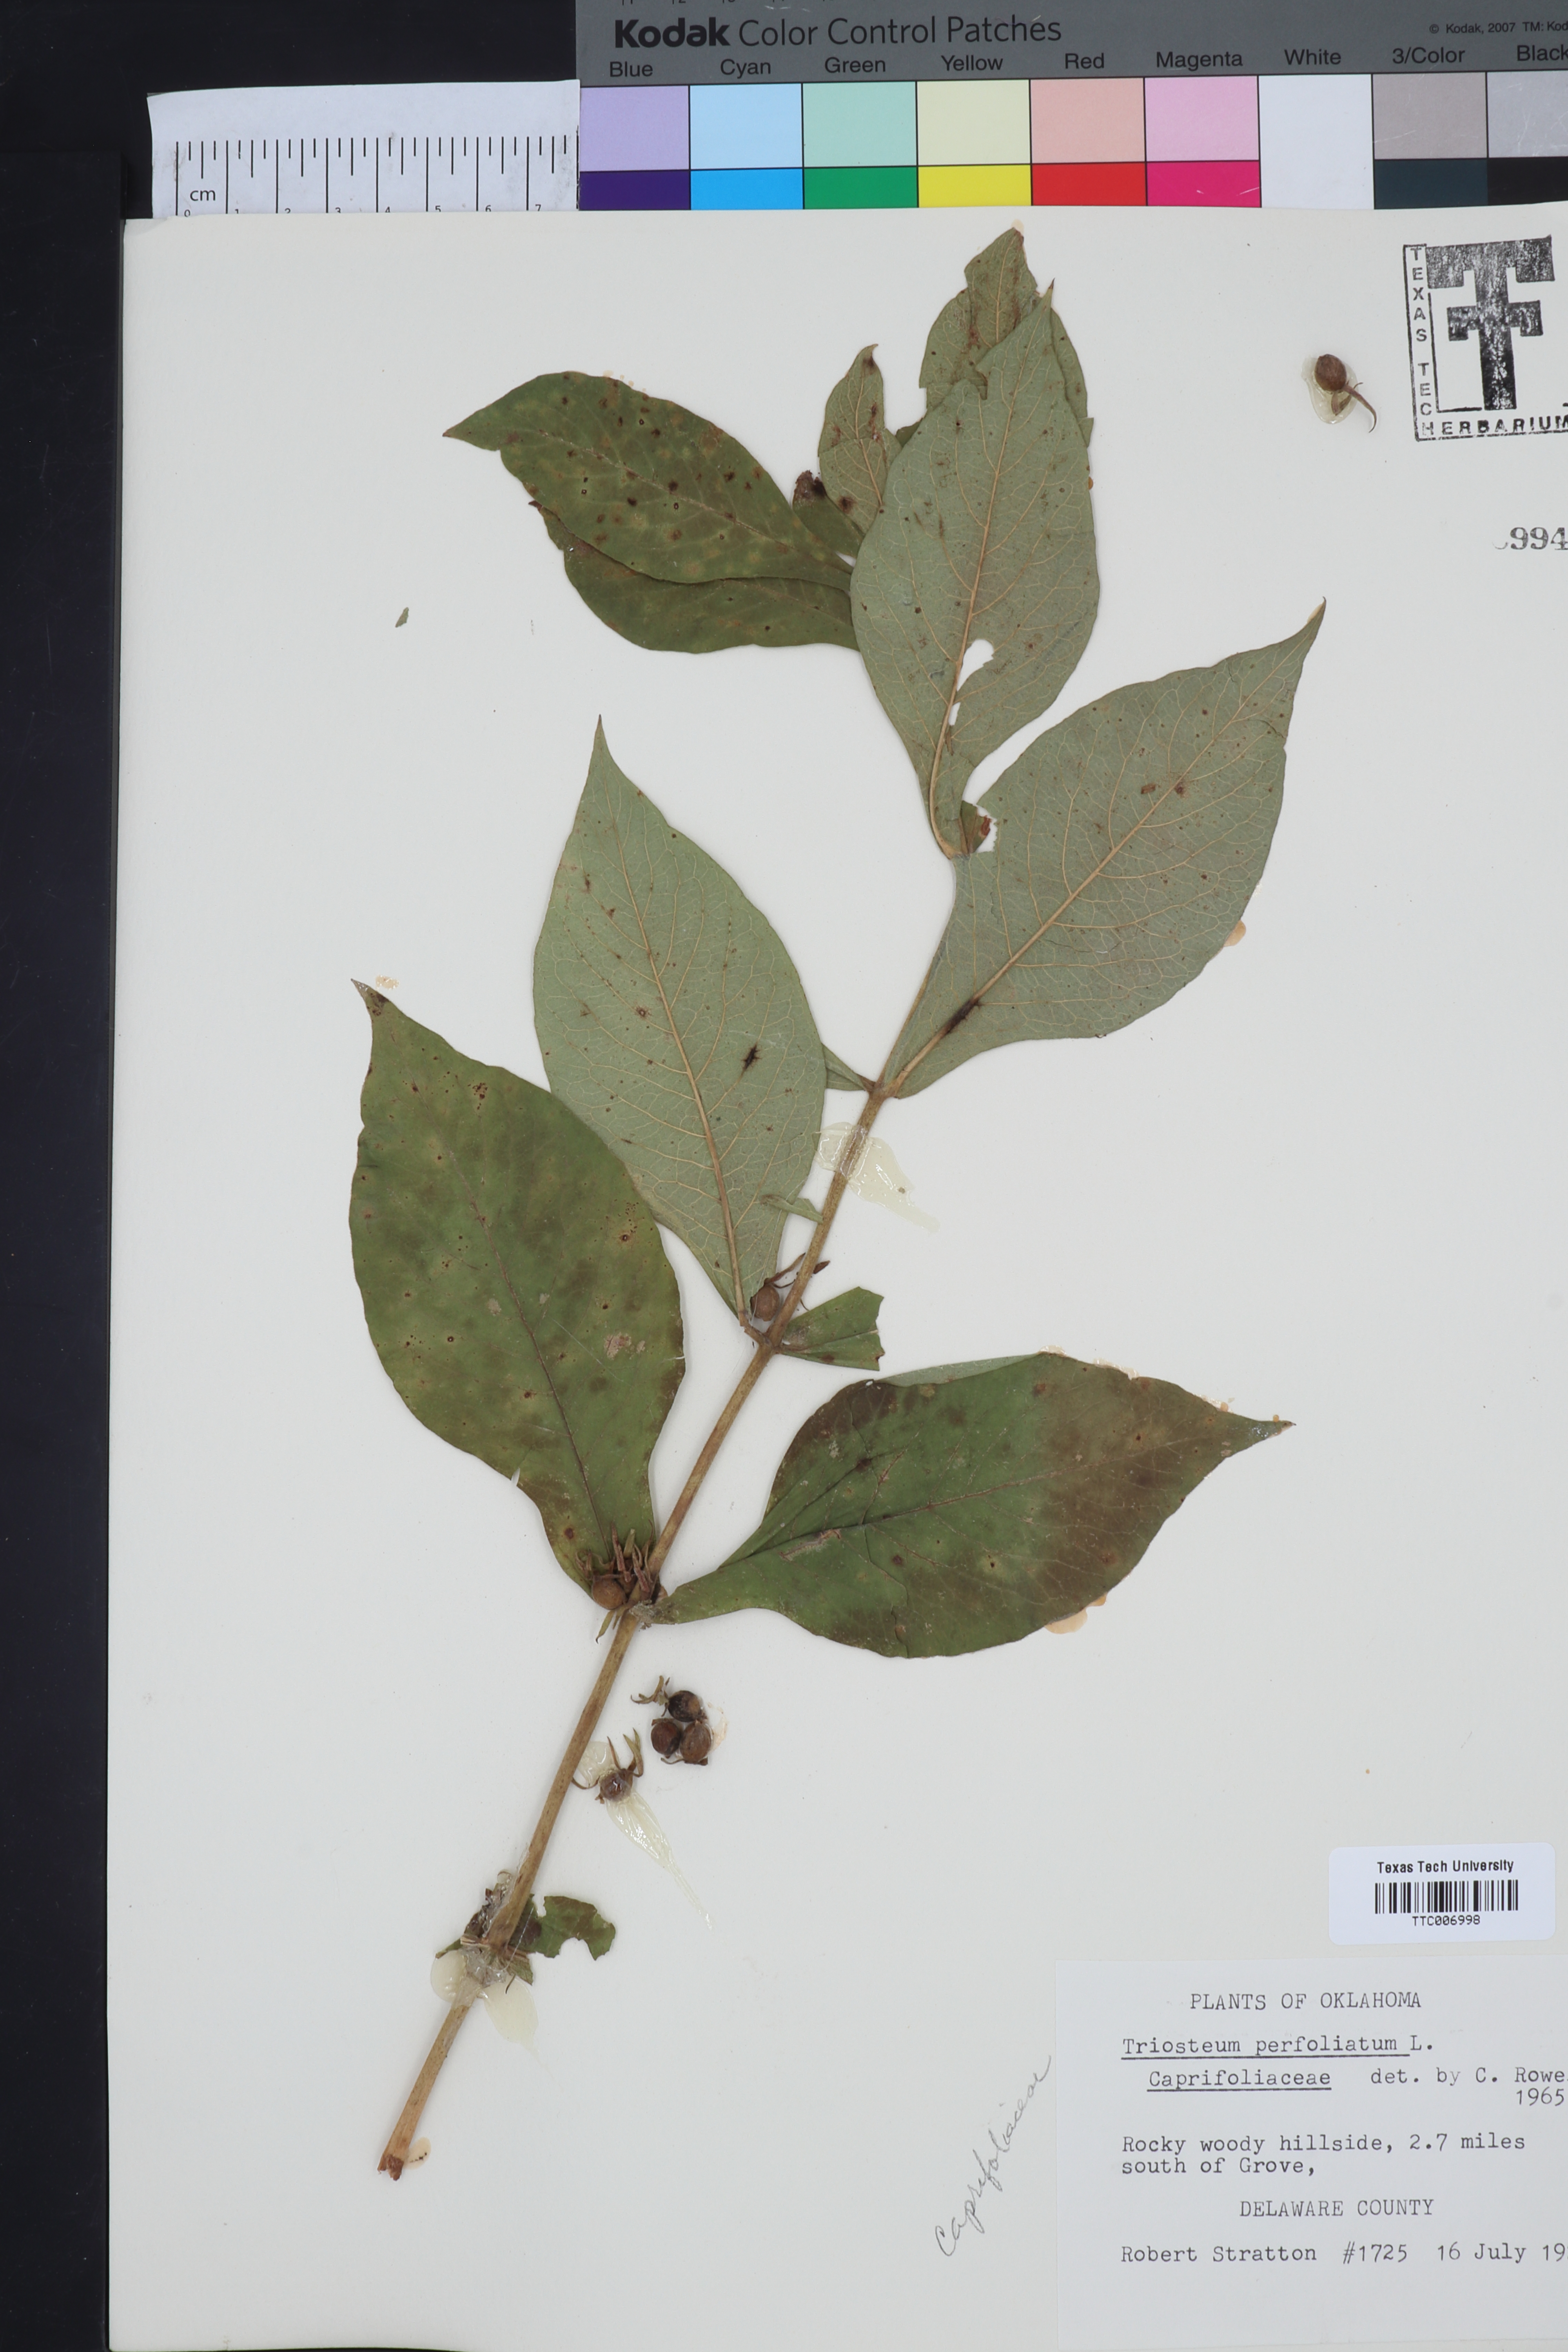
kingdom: Plantae
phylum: Tracheophyta
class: Magnoliopsida
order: Dipsacales
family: Caprifoliaceae
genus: Triosteum
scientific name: Triosteum perfoliatum
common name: Common horse-gentian
